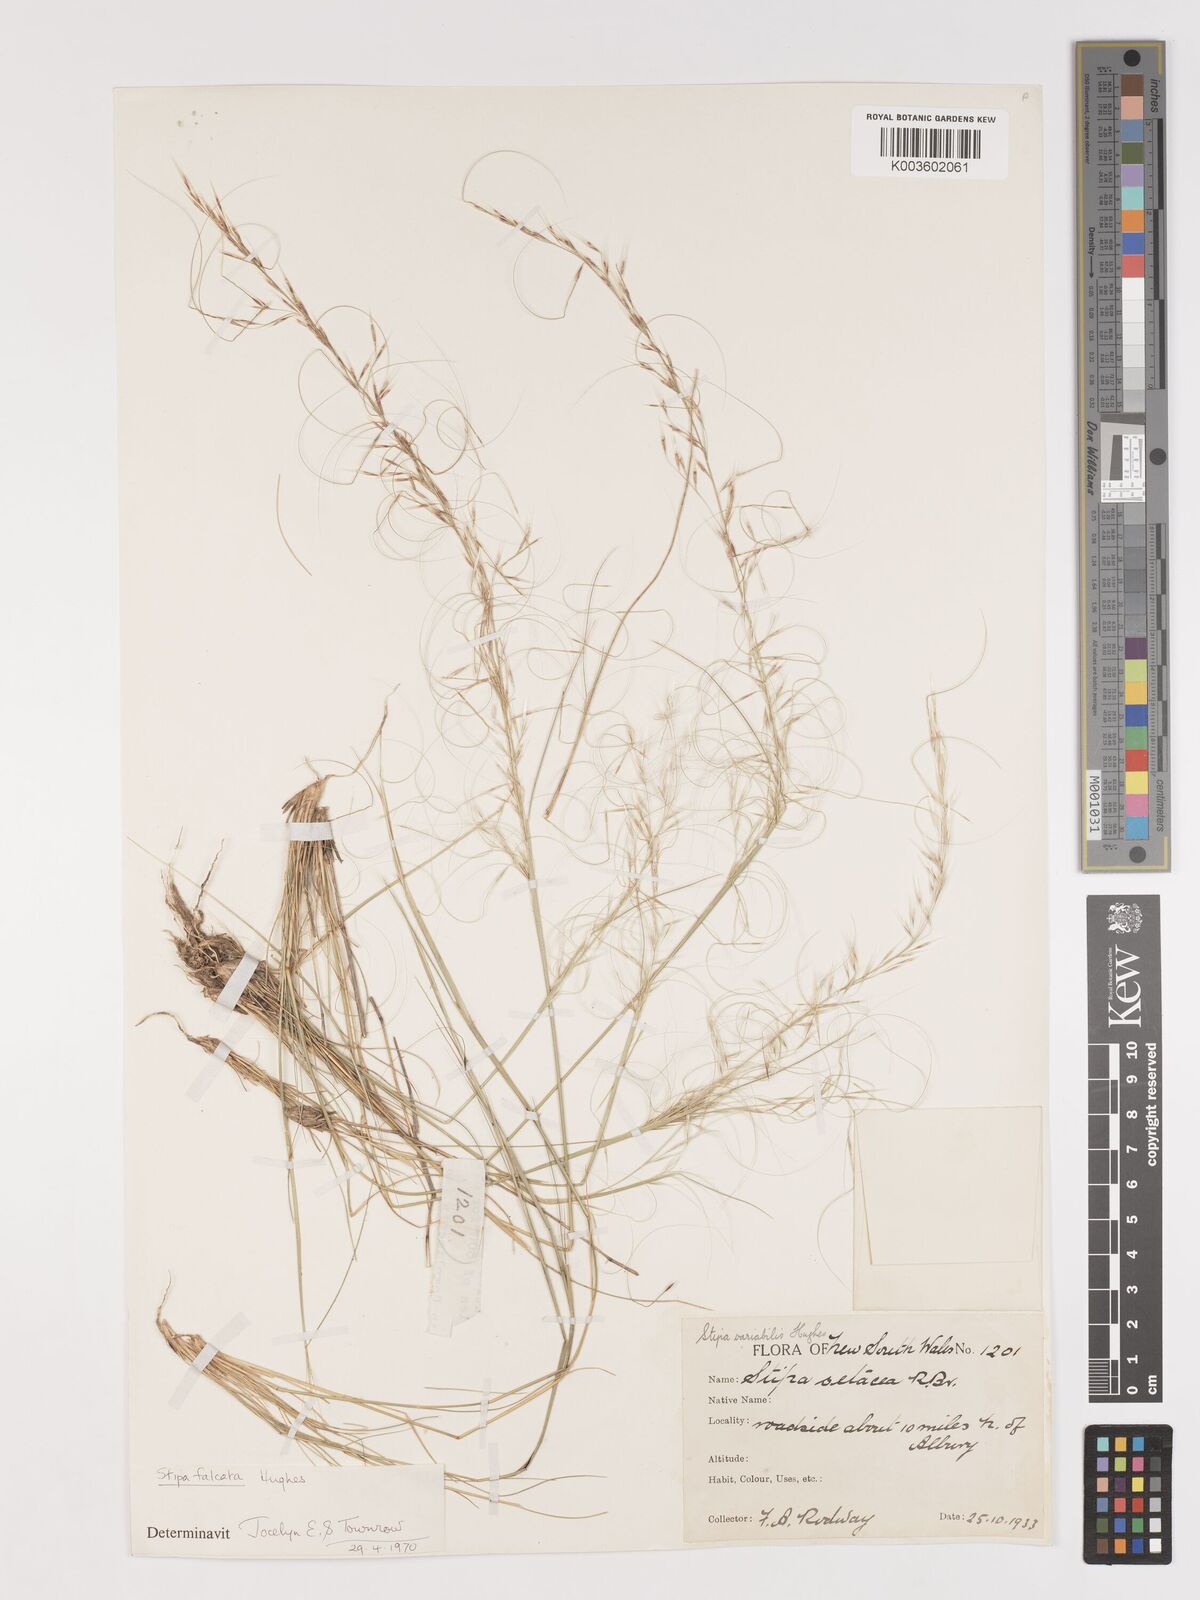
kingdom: Plantae
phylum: Tracheophyta
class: Liliopsida
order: Poales
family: Poaceae
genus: Austrostipa
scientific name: Austrostipa scabra
